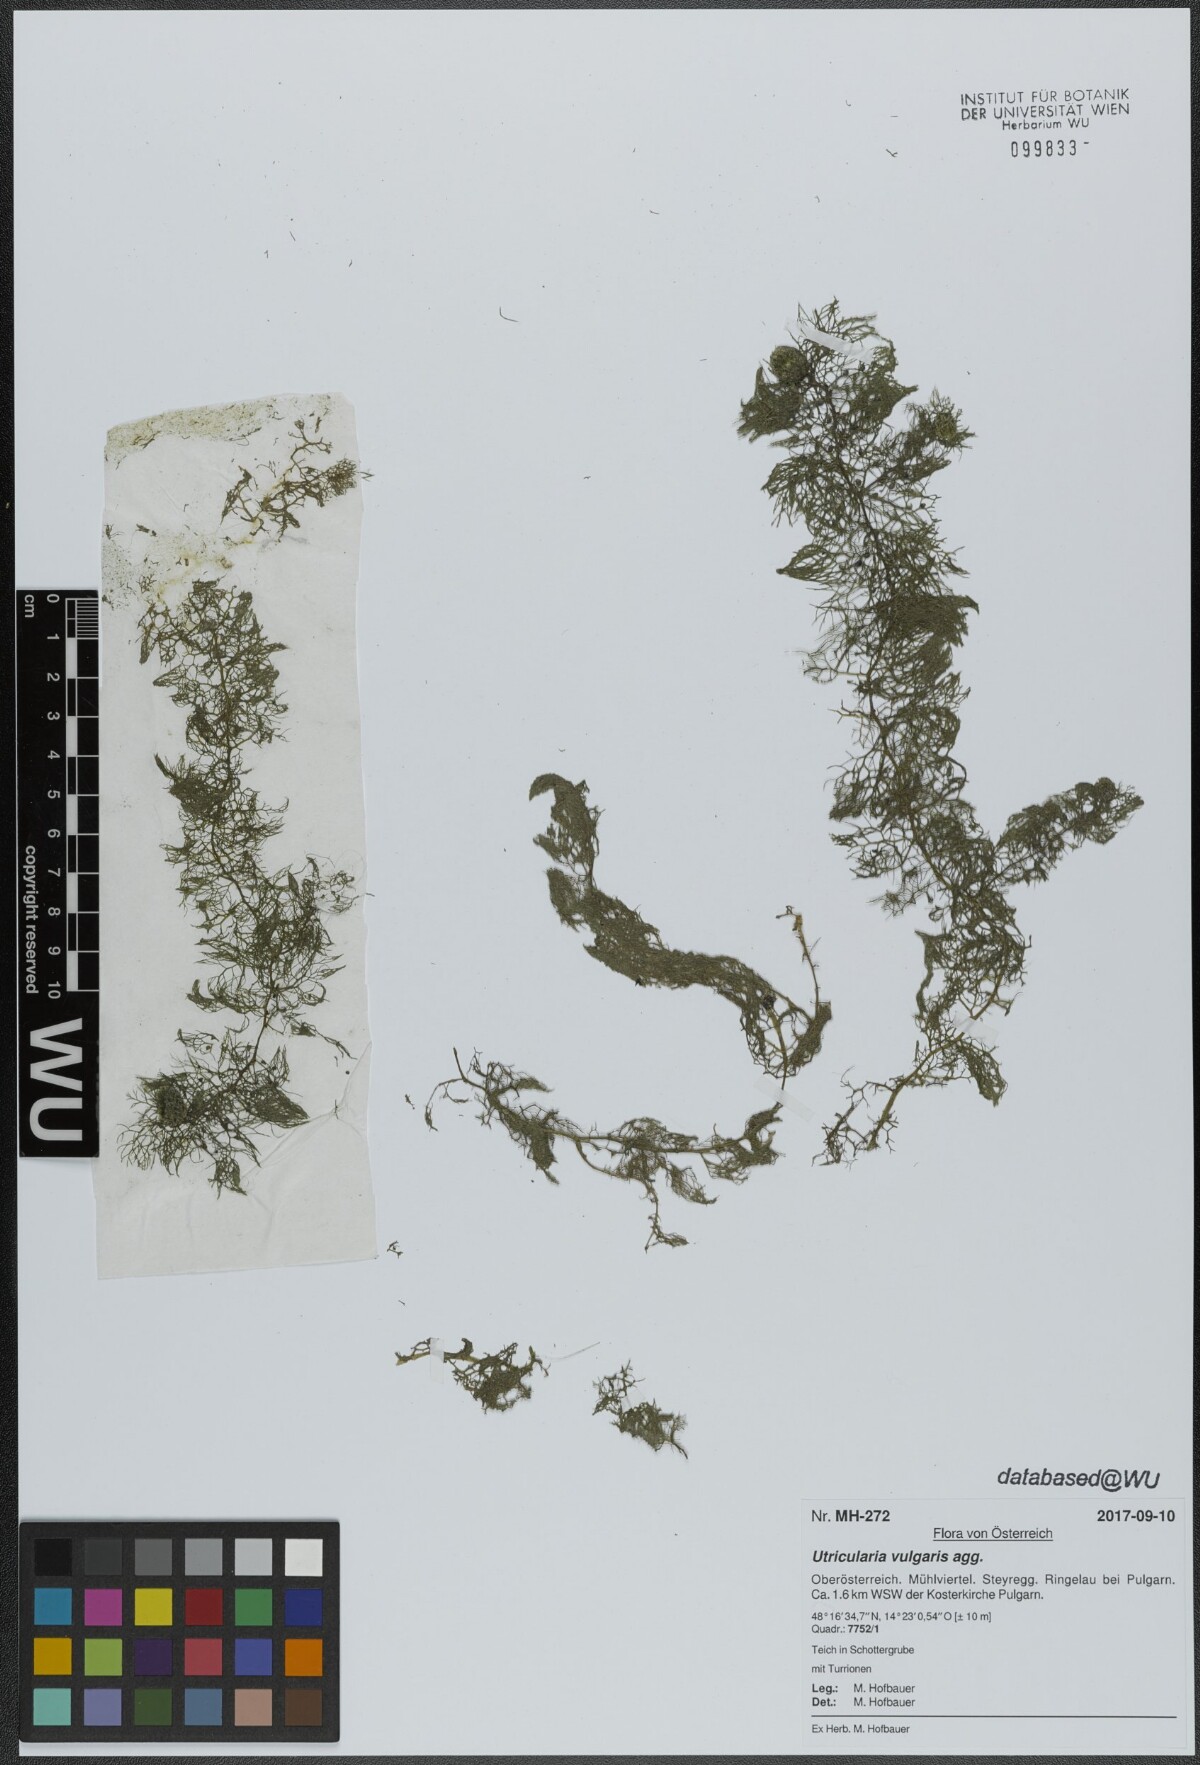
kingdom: Plantae
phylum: Tracheophyta
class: Magnoliopsida
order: Lamiales
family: Lentibulariaceae
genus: Utricularia
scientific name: Utricularia vulgaris
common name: Greater bladderwort
